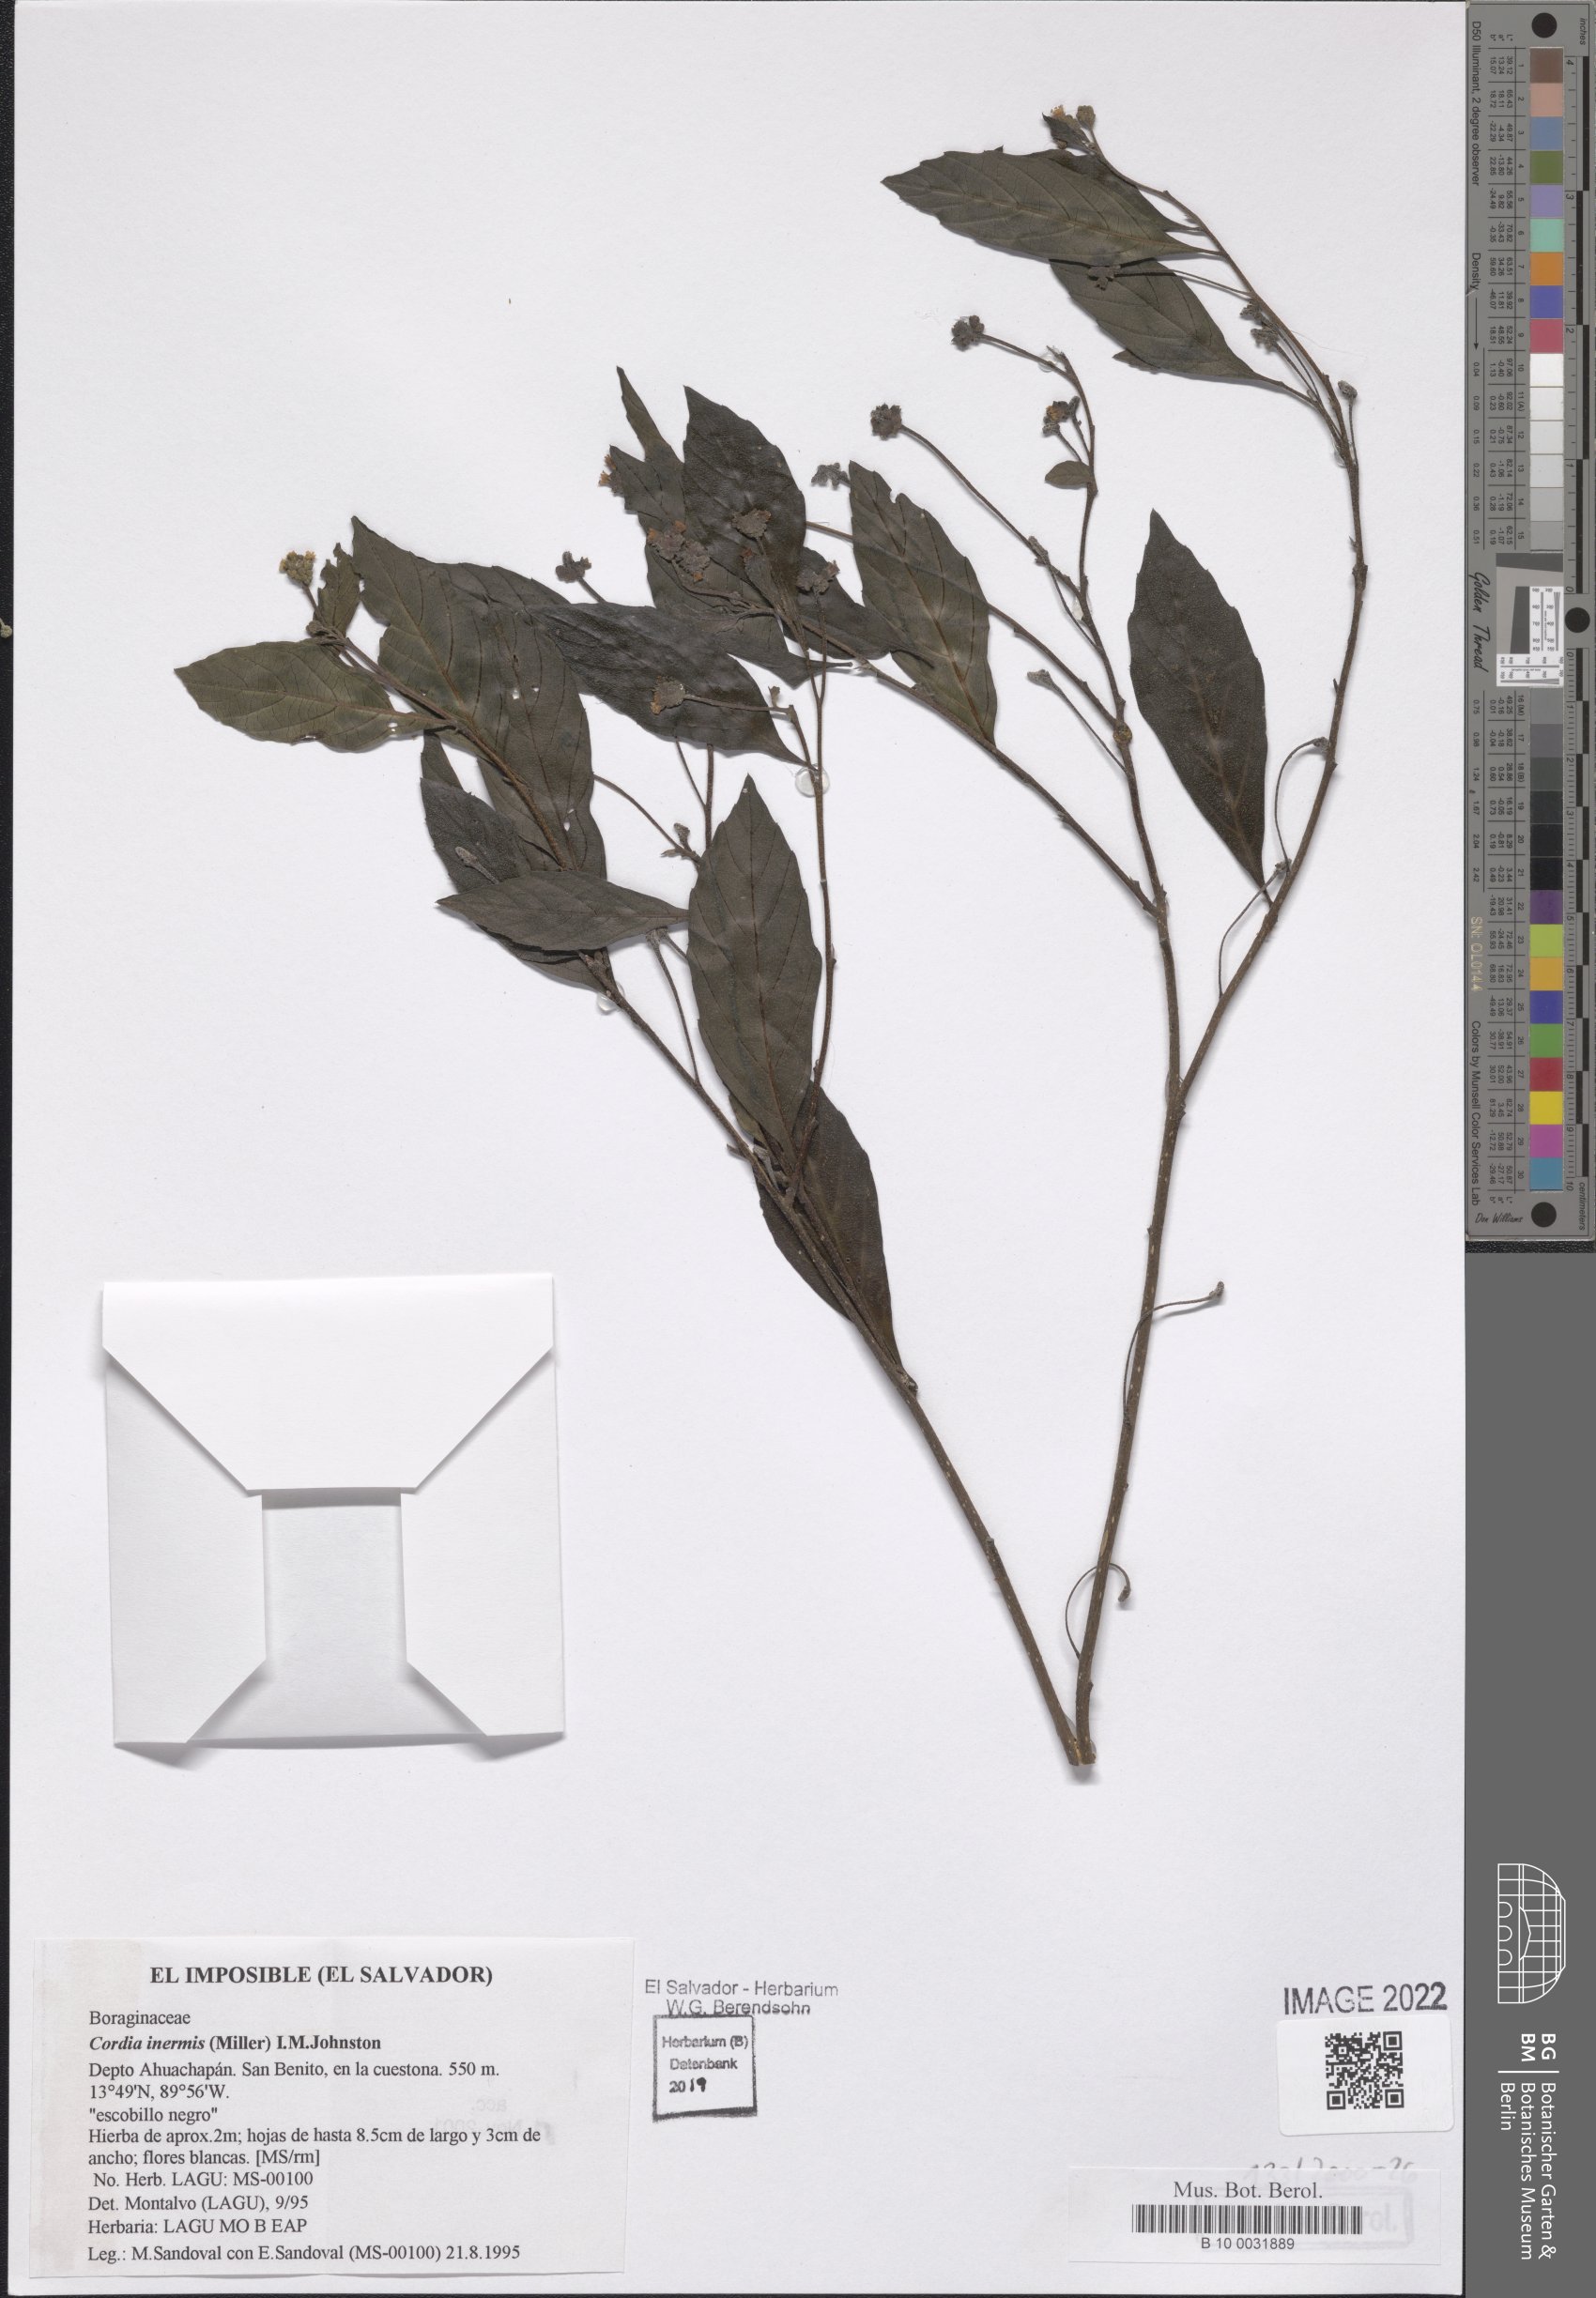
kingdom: Plantae
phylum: Tracheophyta
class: Magnoliopsida
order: Boraginales
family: Cordiaceae
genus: Varronia
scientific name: Varronia inermis
